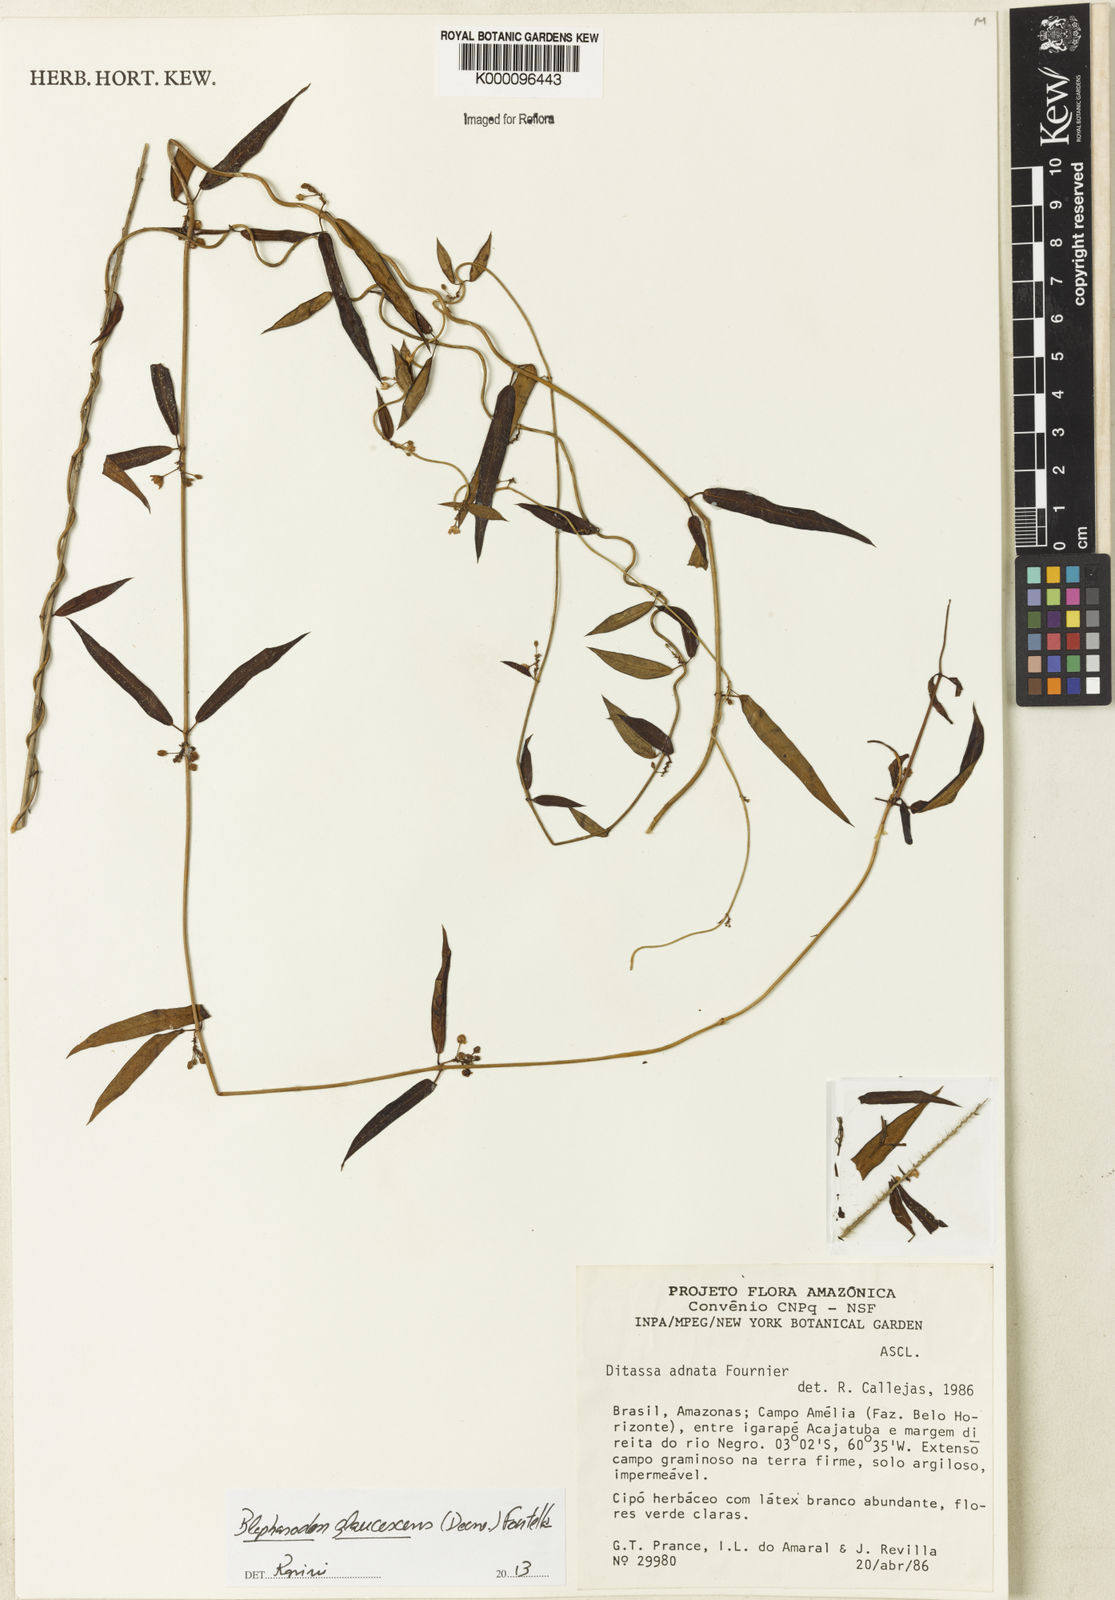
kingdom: Plantae
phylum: Tracheophyta
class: Magnoliopsida
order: Gentianales
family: Apocynaceae
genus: Blepharodon
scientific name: Blepharodon glaucescens
